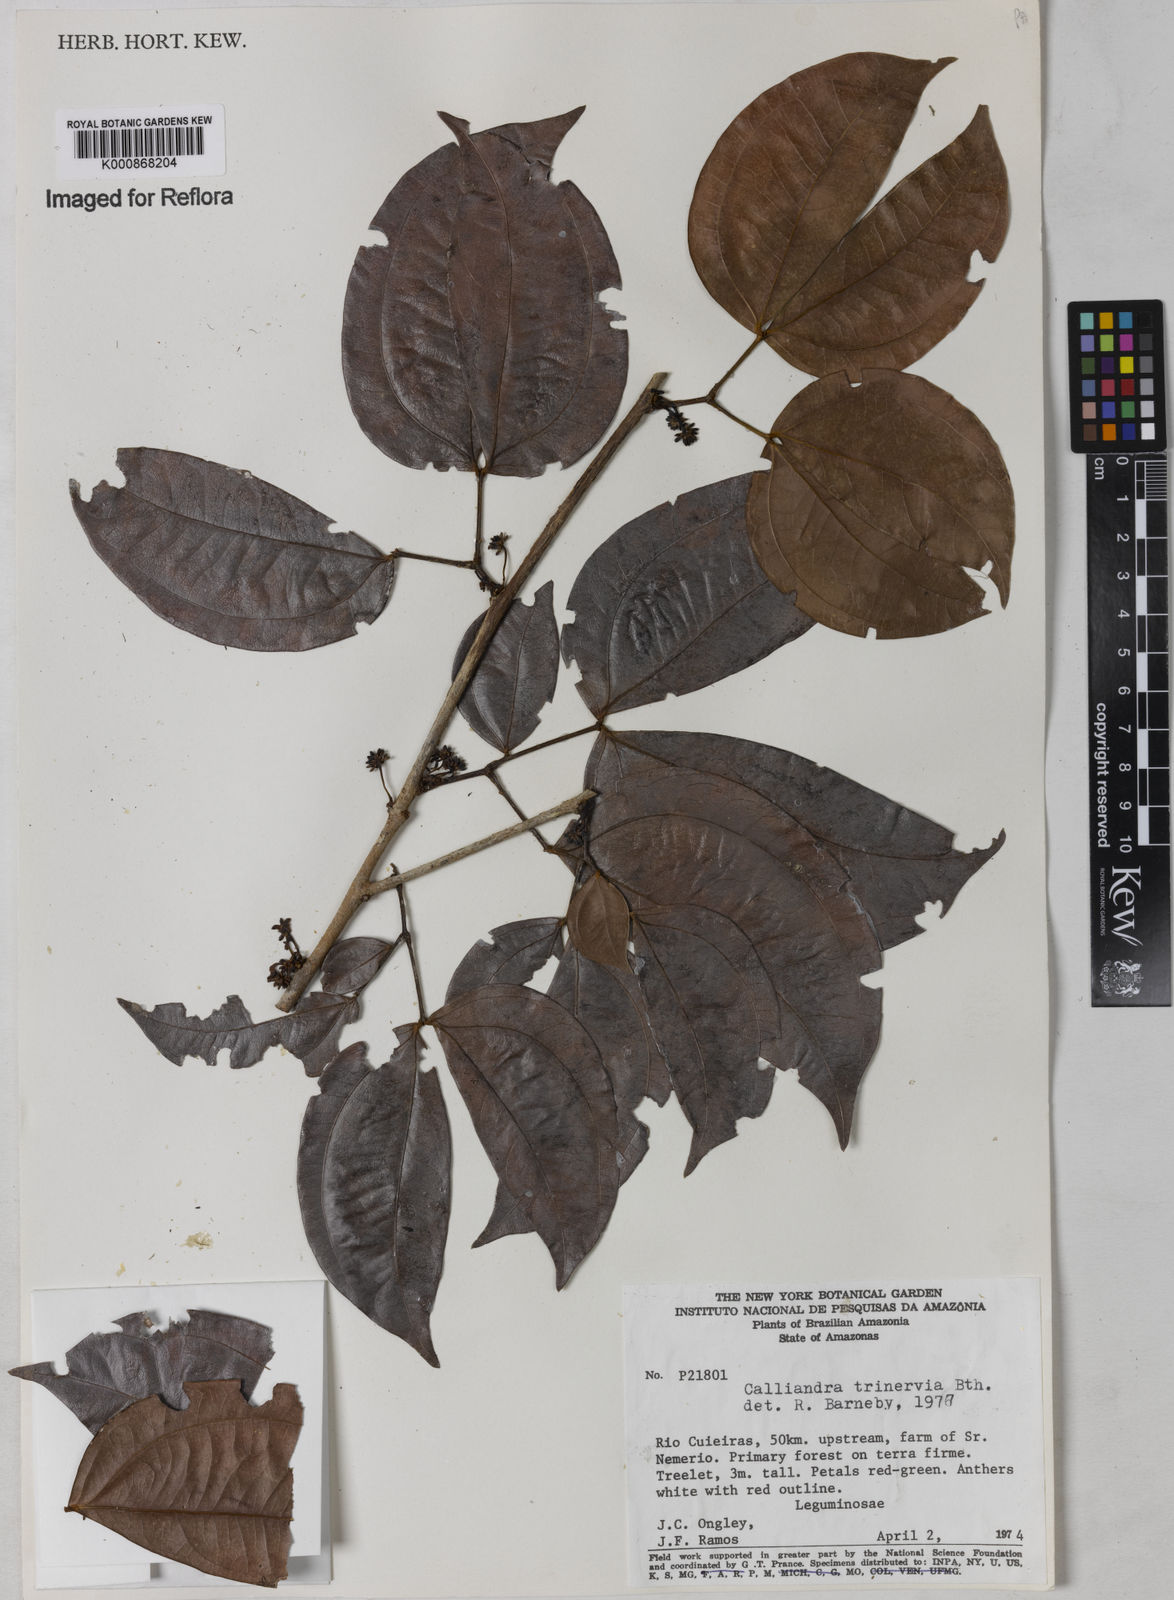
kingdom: Plantae
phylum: Tracheophyta
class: Magnoliopsida
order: Fabales
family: Fabaceae
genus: Calliandra
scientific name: Calliandra trinervia
